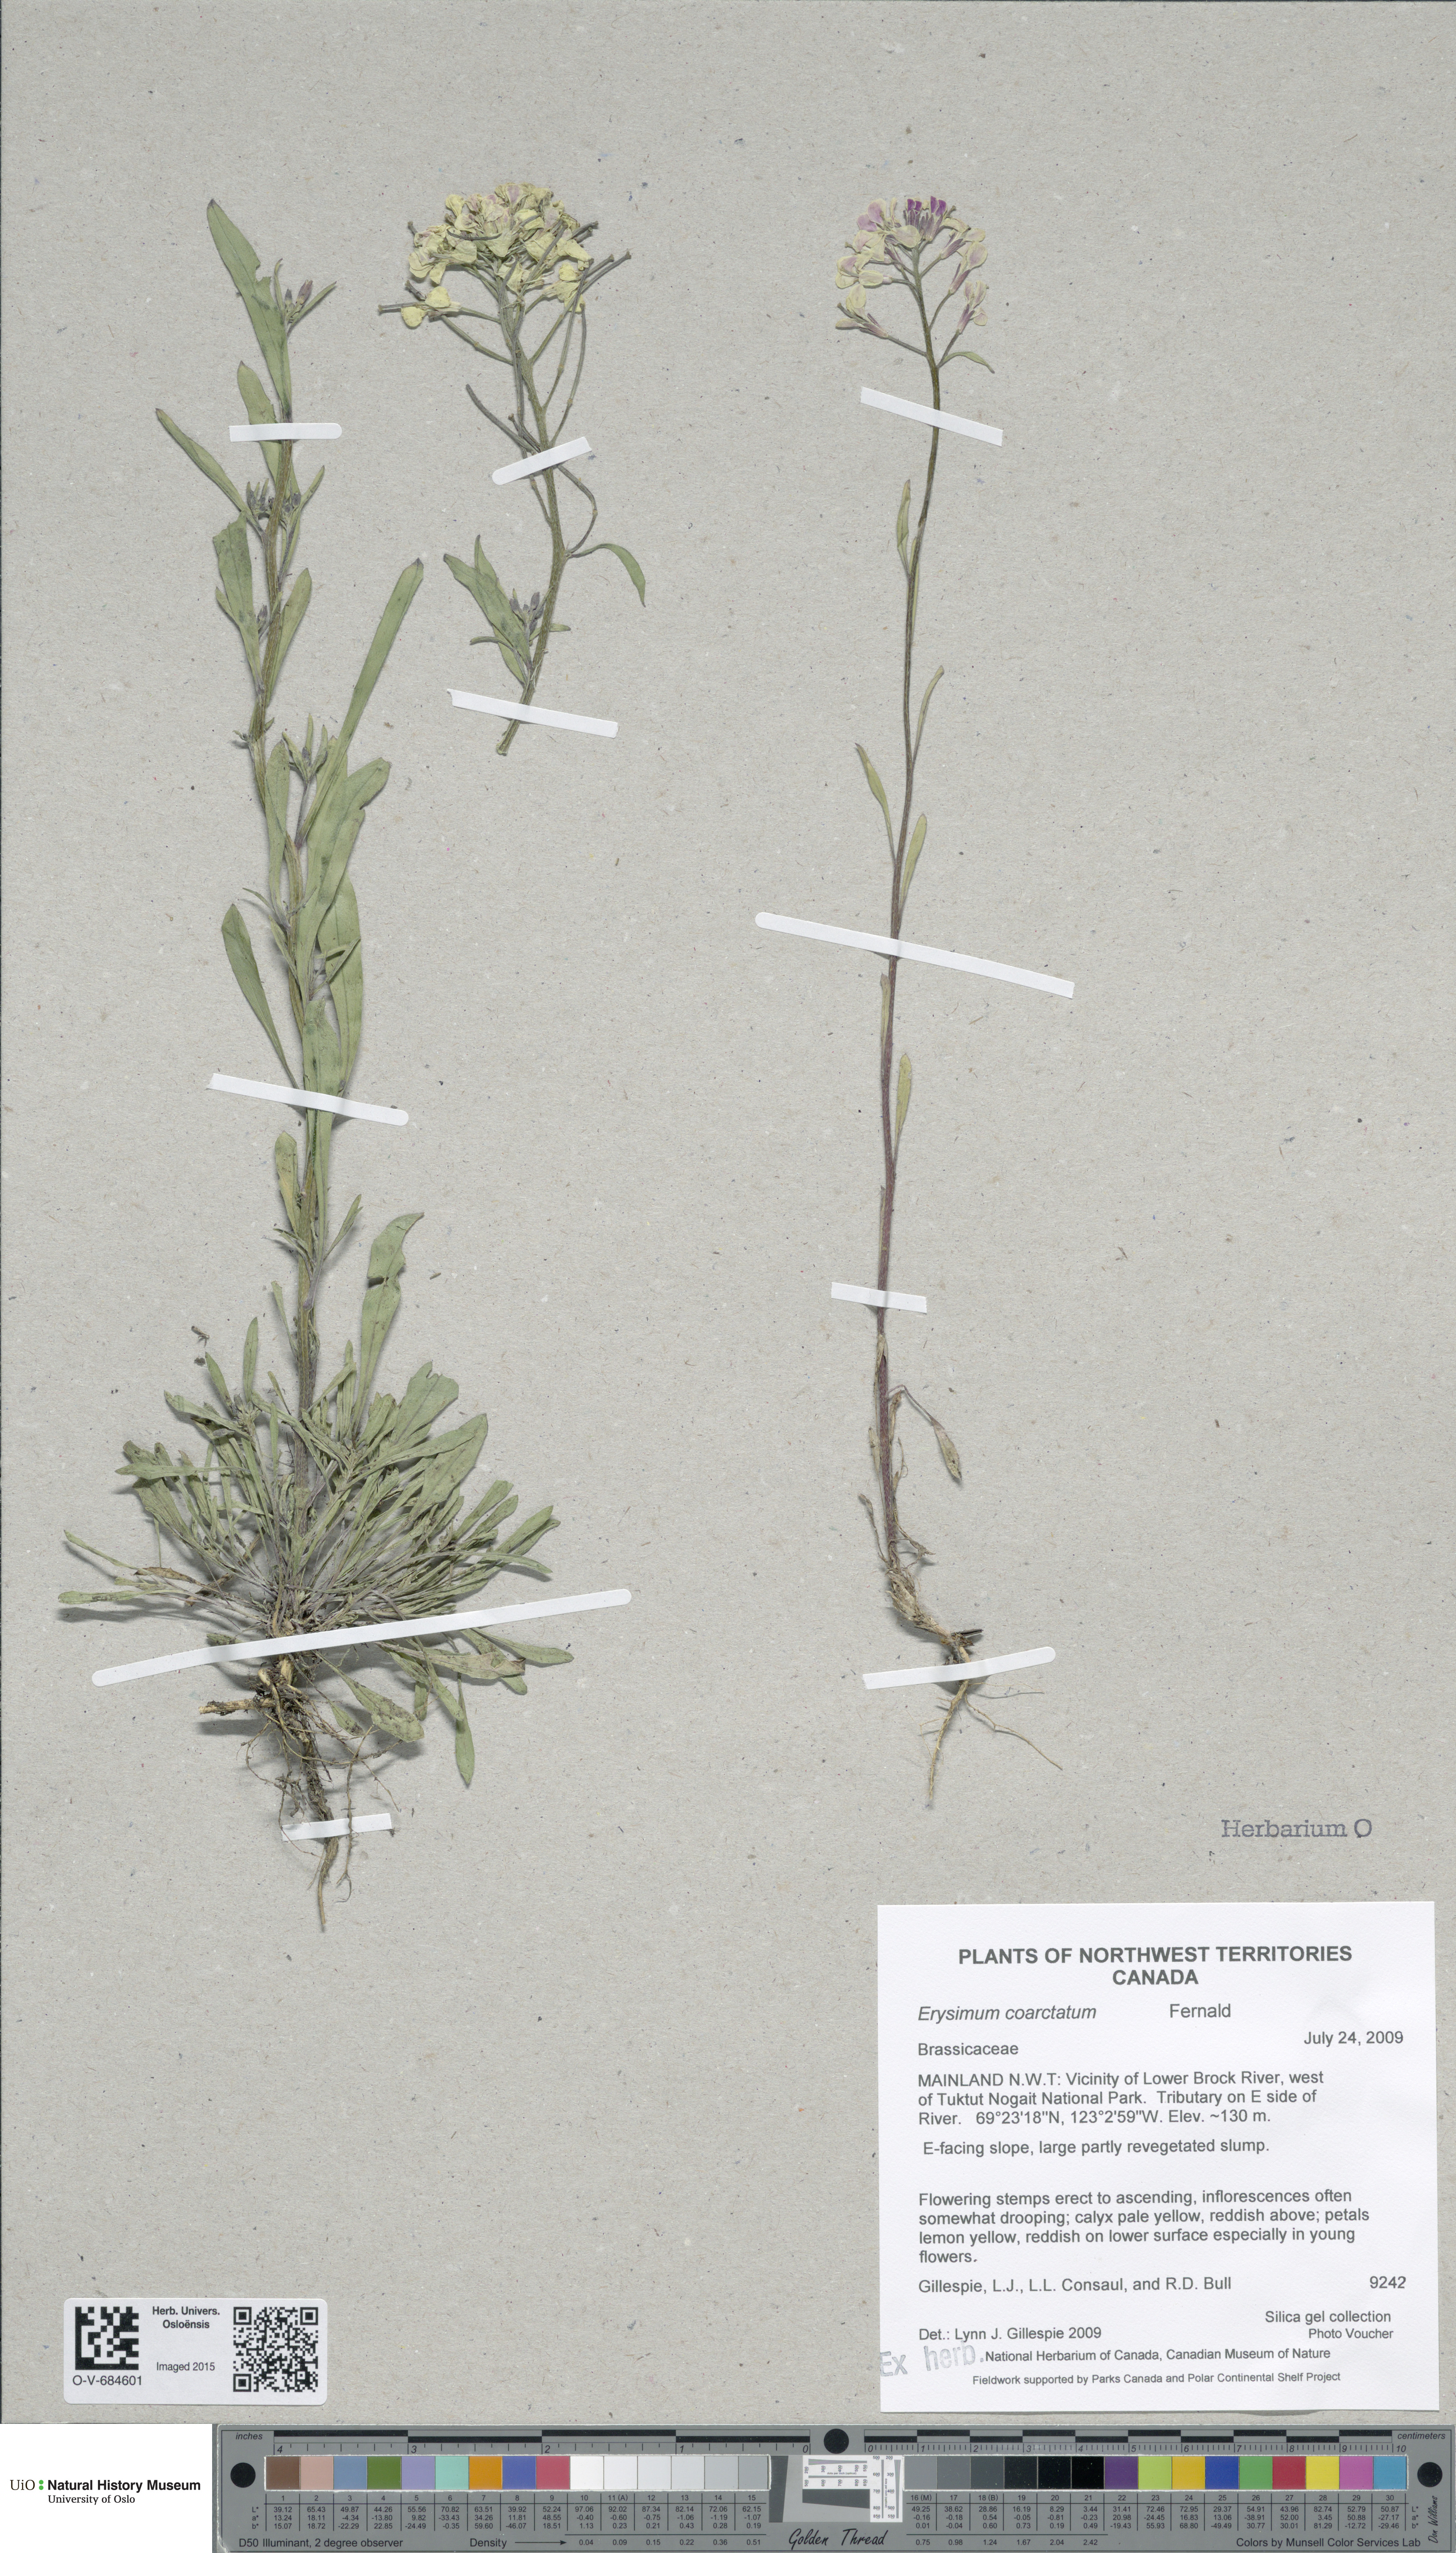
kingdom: Plantae
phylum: Tracheophyta
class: Magnoliopsida
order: Brassicales
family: Brassicaceae
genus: Erysimum
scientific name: Erysimum coarctatum
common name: Gulf of st. lawrence wormseed mustard
